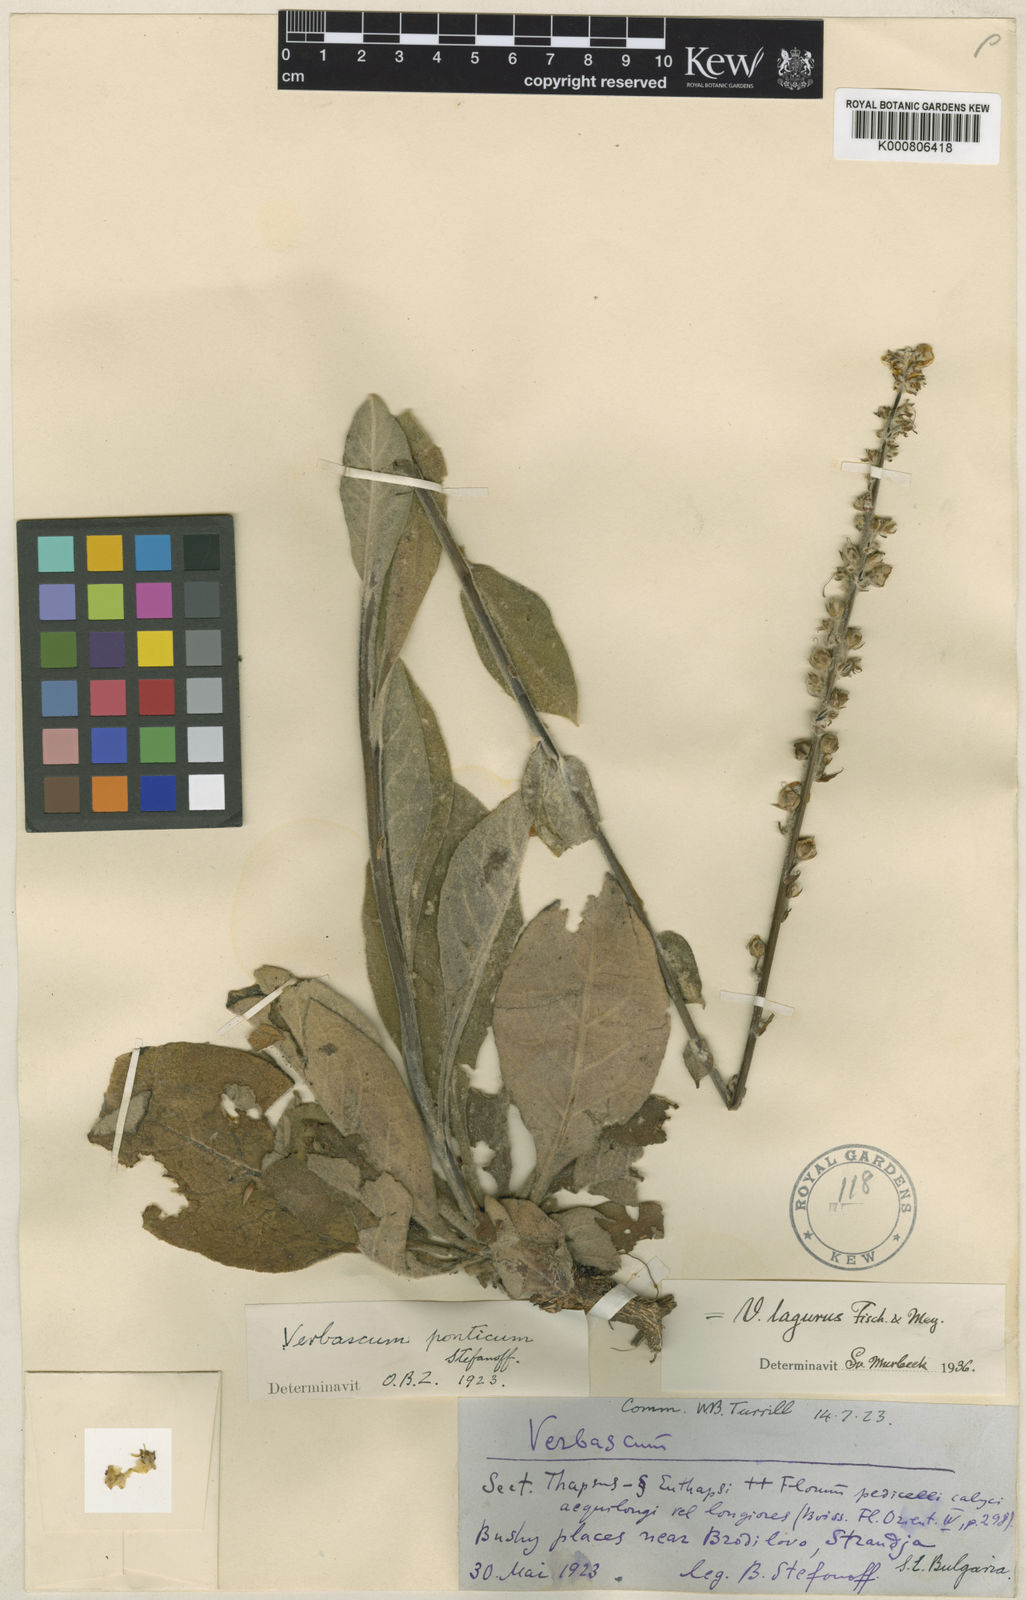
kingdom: Plantae
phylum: Tracheophyta
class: Magnoliopsida
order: Lamiales
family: Scrophulariaceae
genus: Verbascum
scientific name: Verbascum lagurus
